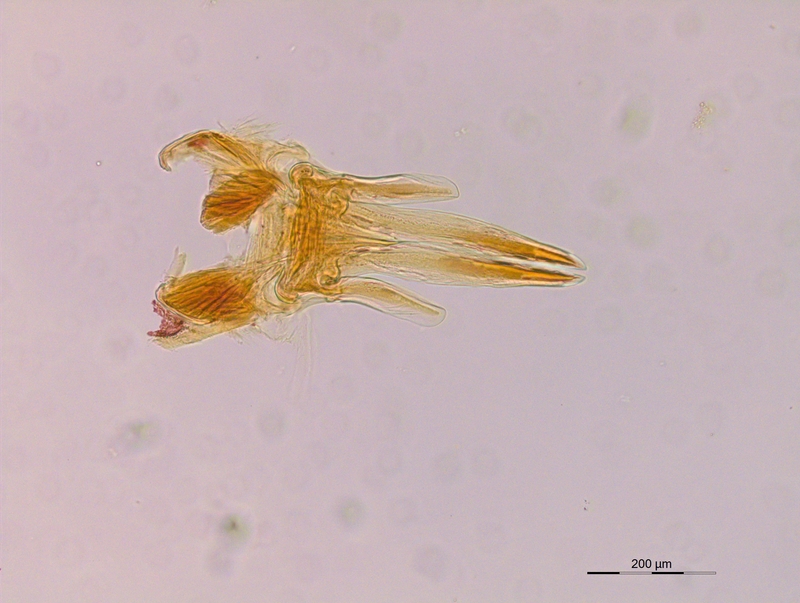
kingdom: Animalia
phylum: Arthropoda
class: Diplopoda
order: Julida
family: Blaniulidae
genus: Nopoiulus
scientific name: Nopoiulus kochii
